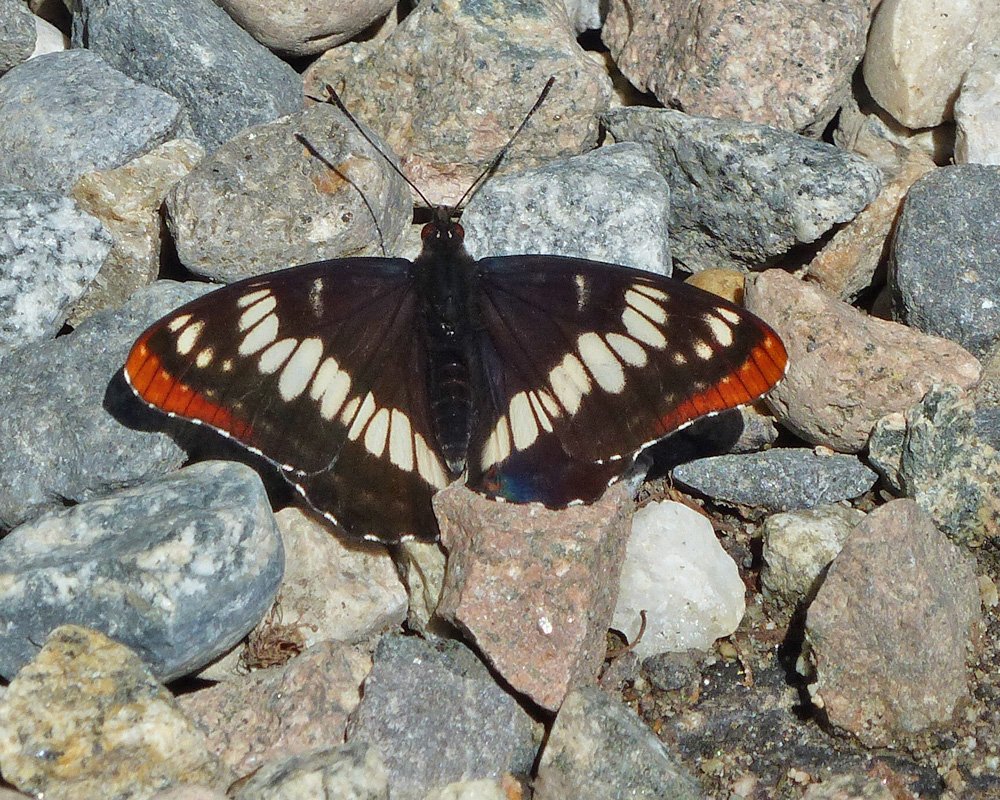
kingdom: Animalia
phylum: Arthropoda
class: Insecta
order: Lepidoptera
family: Nymphalidae
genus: Limenitis
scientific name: Limenitis lorquini
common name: Lorquin's Admiral
